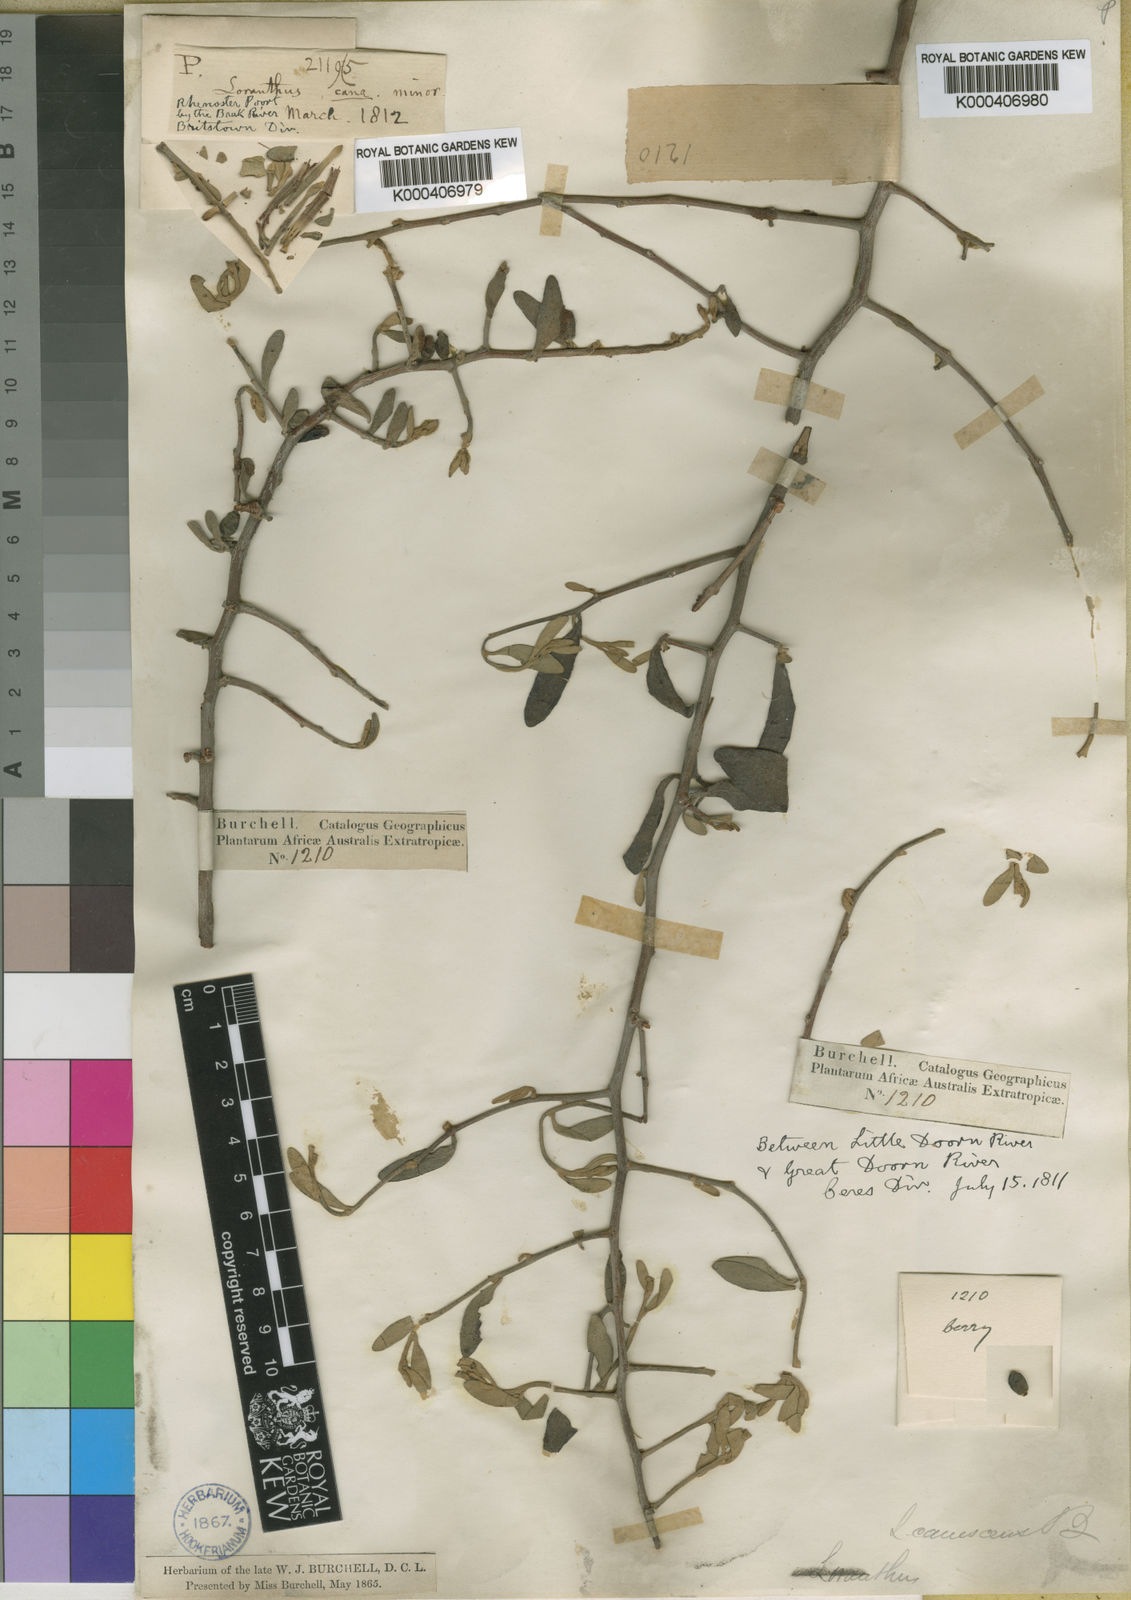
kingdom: Plantae
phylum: Tracheophyta
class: Magnoliopsida
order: Santalales
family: Loranthaceae
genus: Septulina
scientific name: Septulina glauca
